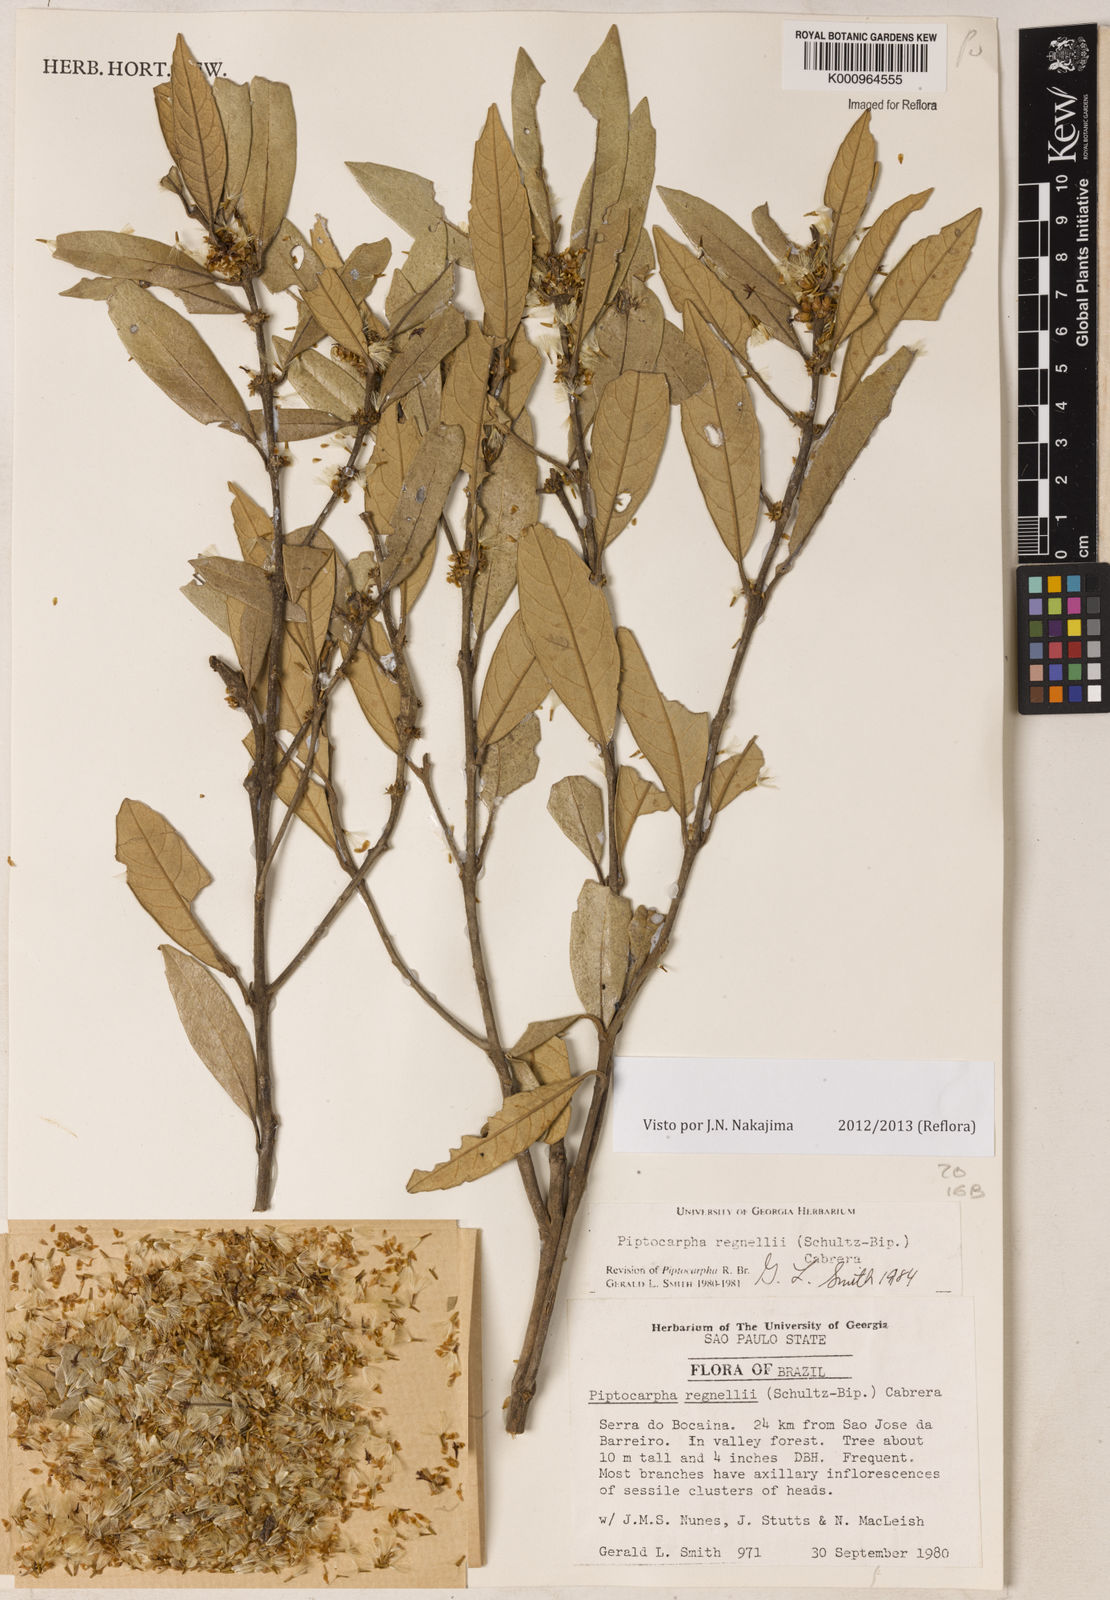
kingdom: Plantae
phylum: Tracheophyta
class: Magnoliopsida
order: Asterales
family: Asteraceae
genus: Piptocarpha
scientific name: Piptocarpha regnellii
